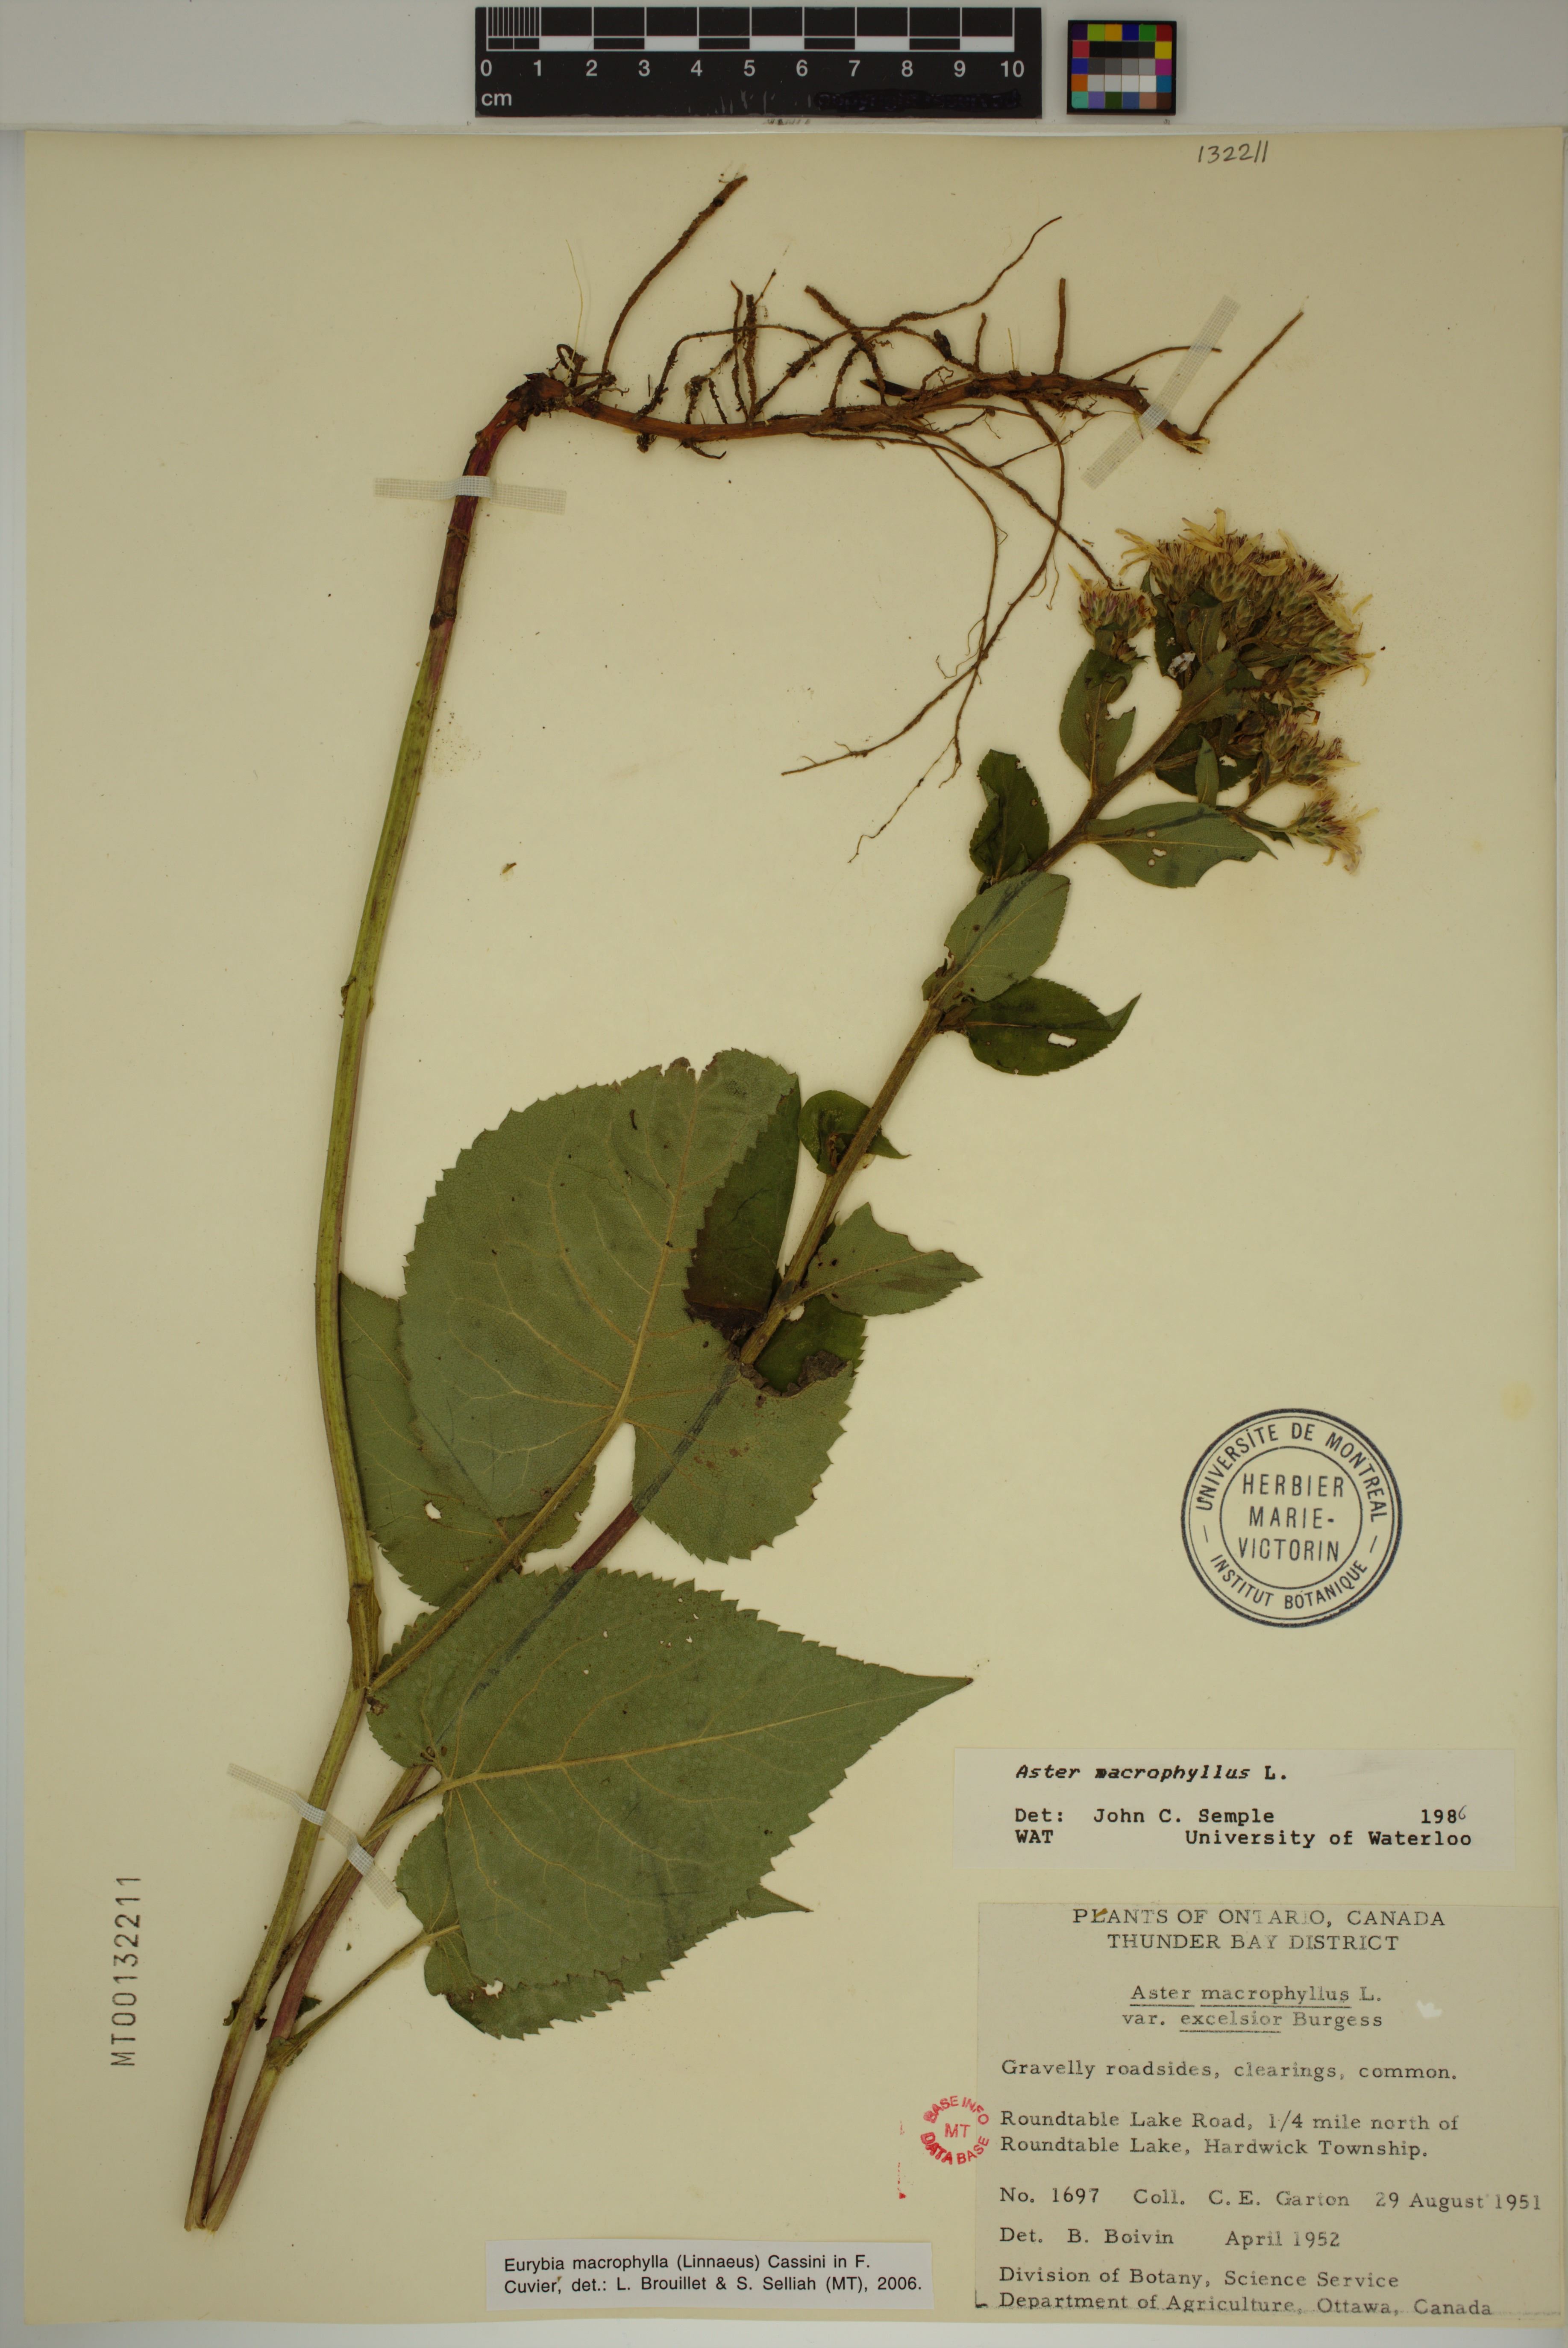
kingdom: Plantae
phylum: Tracheophyta
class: Magnoliopsida
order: Asterales
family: Asteraceae
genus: Eurybia
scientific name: Eurybia macrophylla
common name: Big-leaved aster
